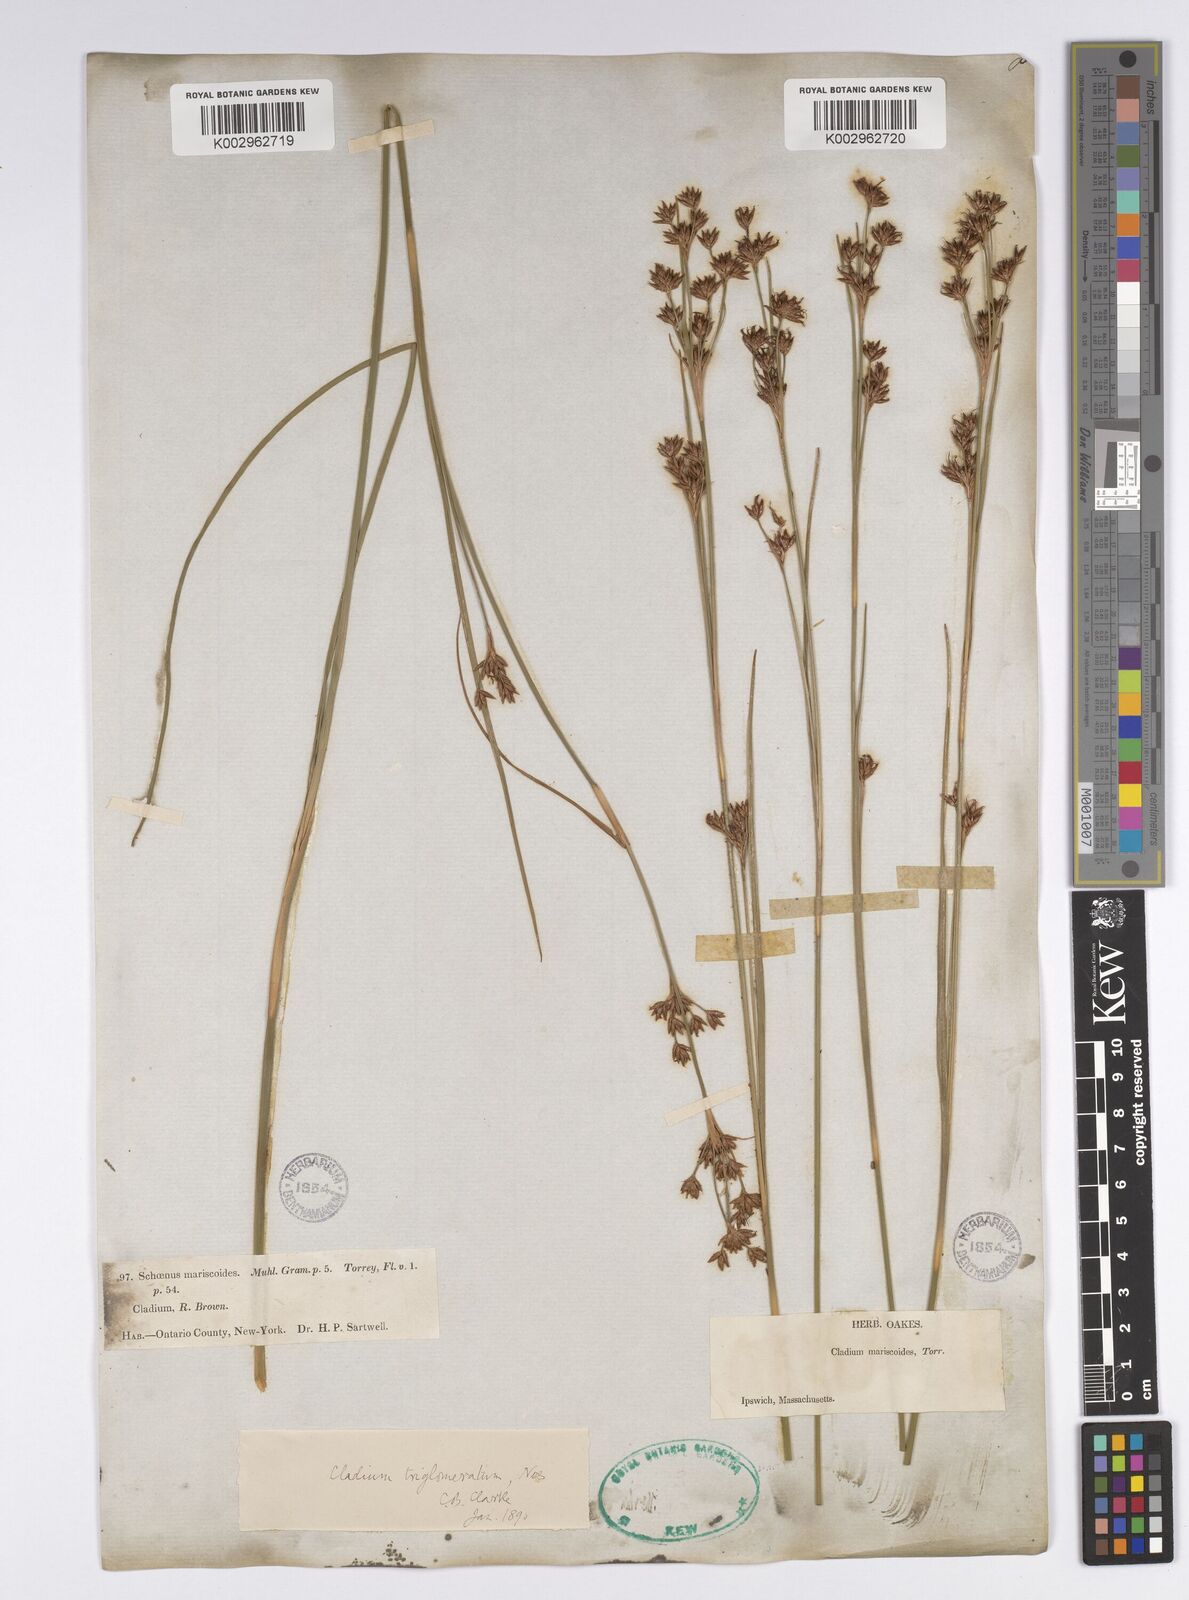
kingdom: Plantae
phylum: Tracheophyta
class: Liliopsida
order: Poales
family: Cyperaceae
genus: Cladium
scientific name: Cladium mariscoides
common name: Smooth sawgrass
